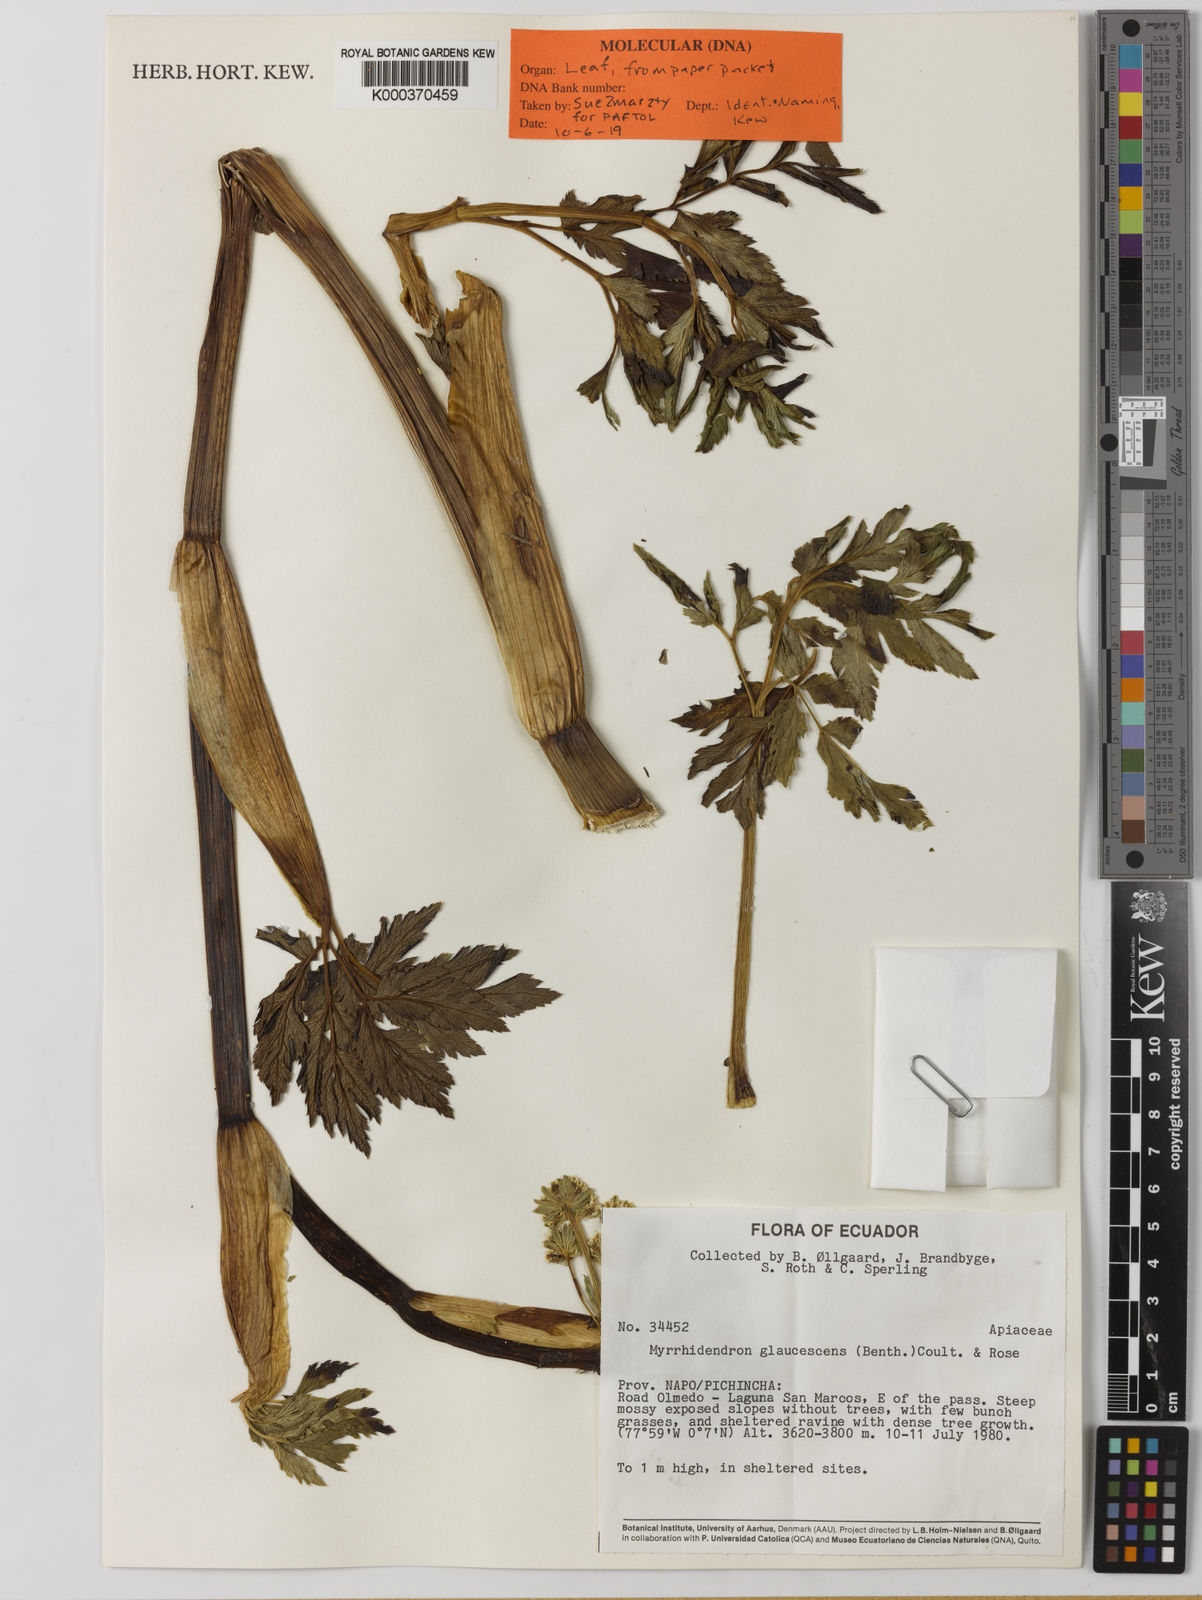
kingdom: Plantae
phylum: Tracheophyta
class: Magnoliopsida
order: Apiales
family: Apiaceae
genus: Myrrhidendron
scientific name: Myrrhidendron glaucescens
